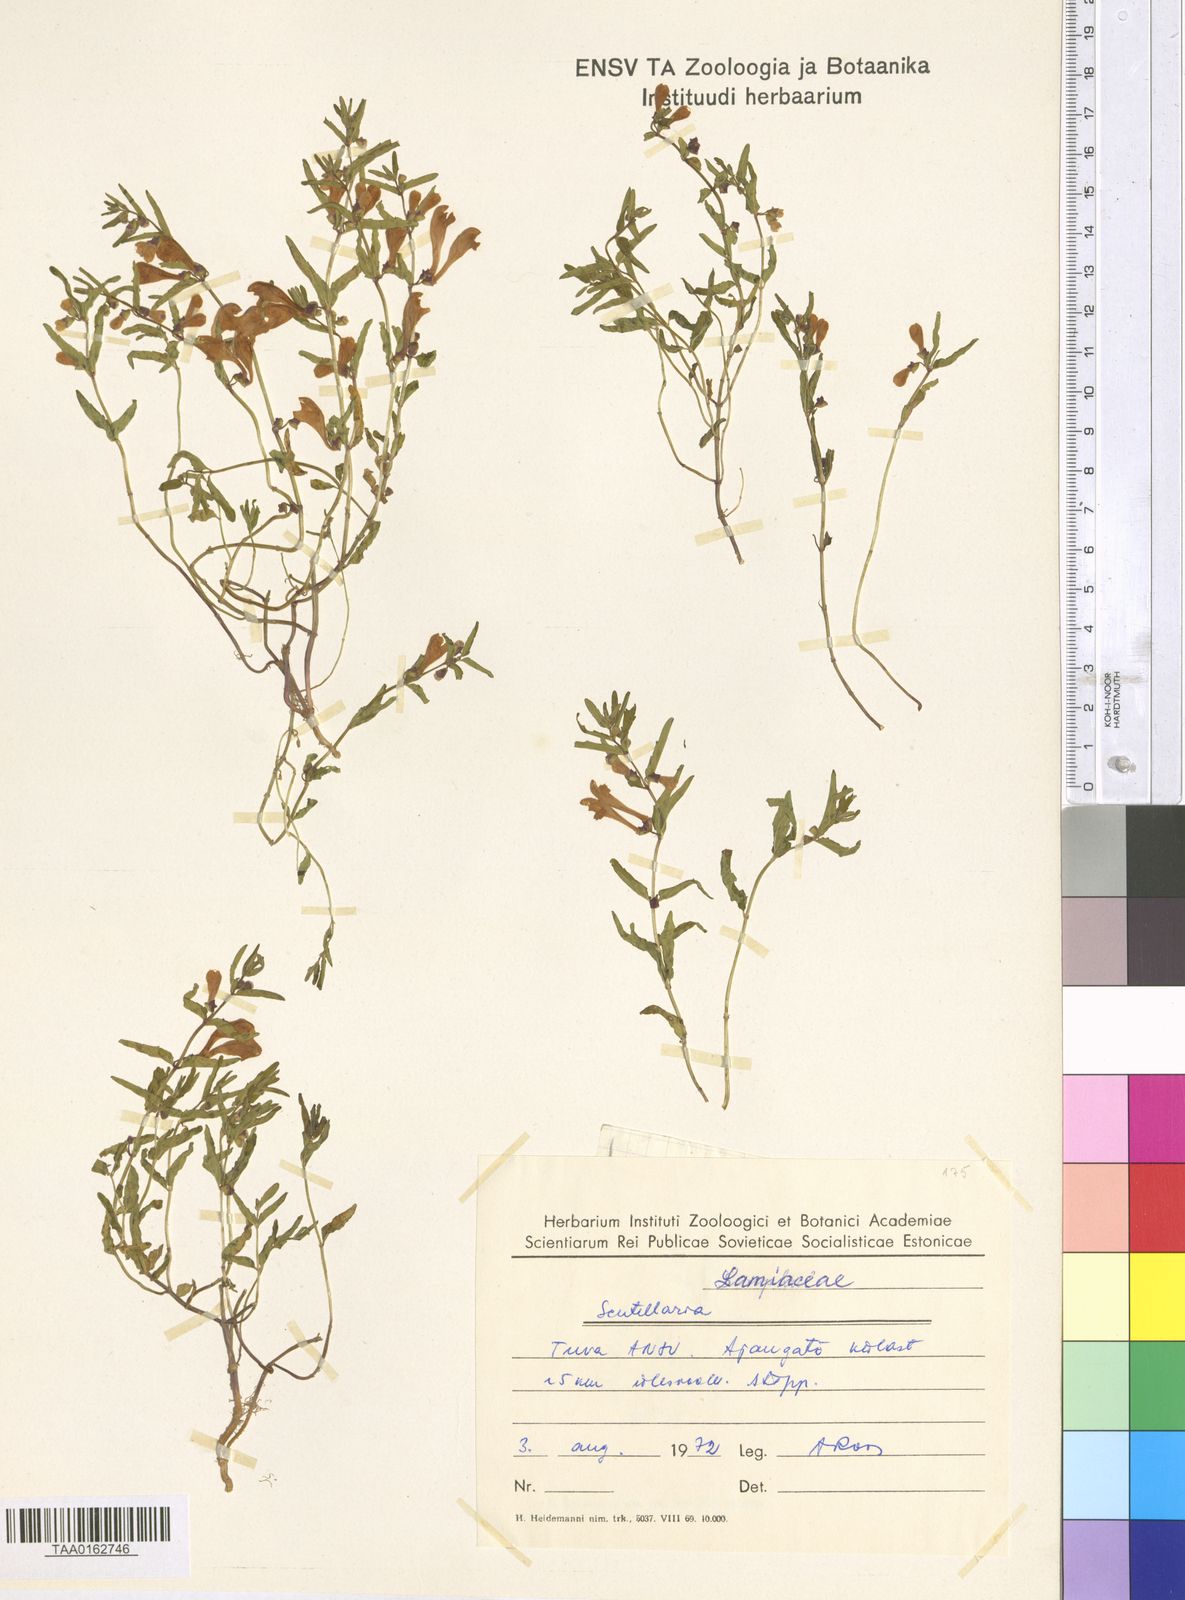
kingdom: Plantae
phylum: Tracheophyta
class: Magnoliopsida
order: Lamiales
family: Lamiaceae
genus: Scutellaria
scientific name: Scutellaria
